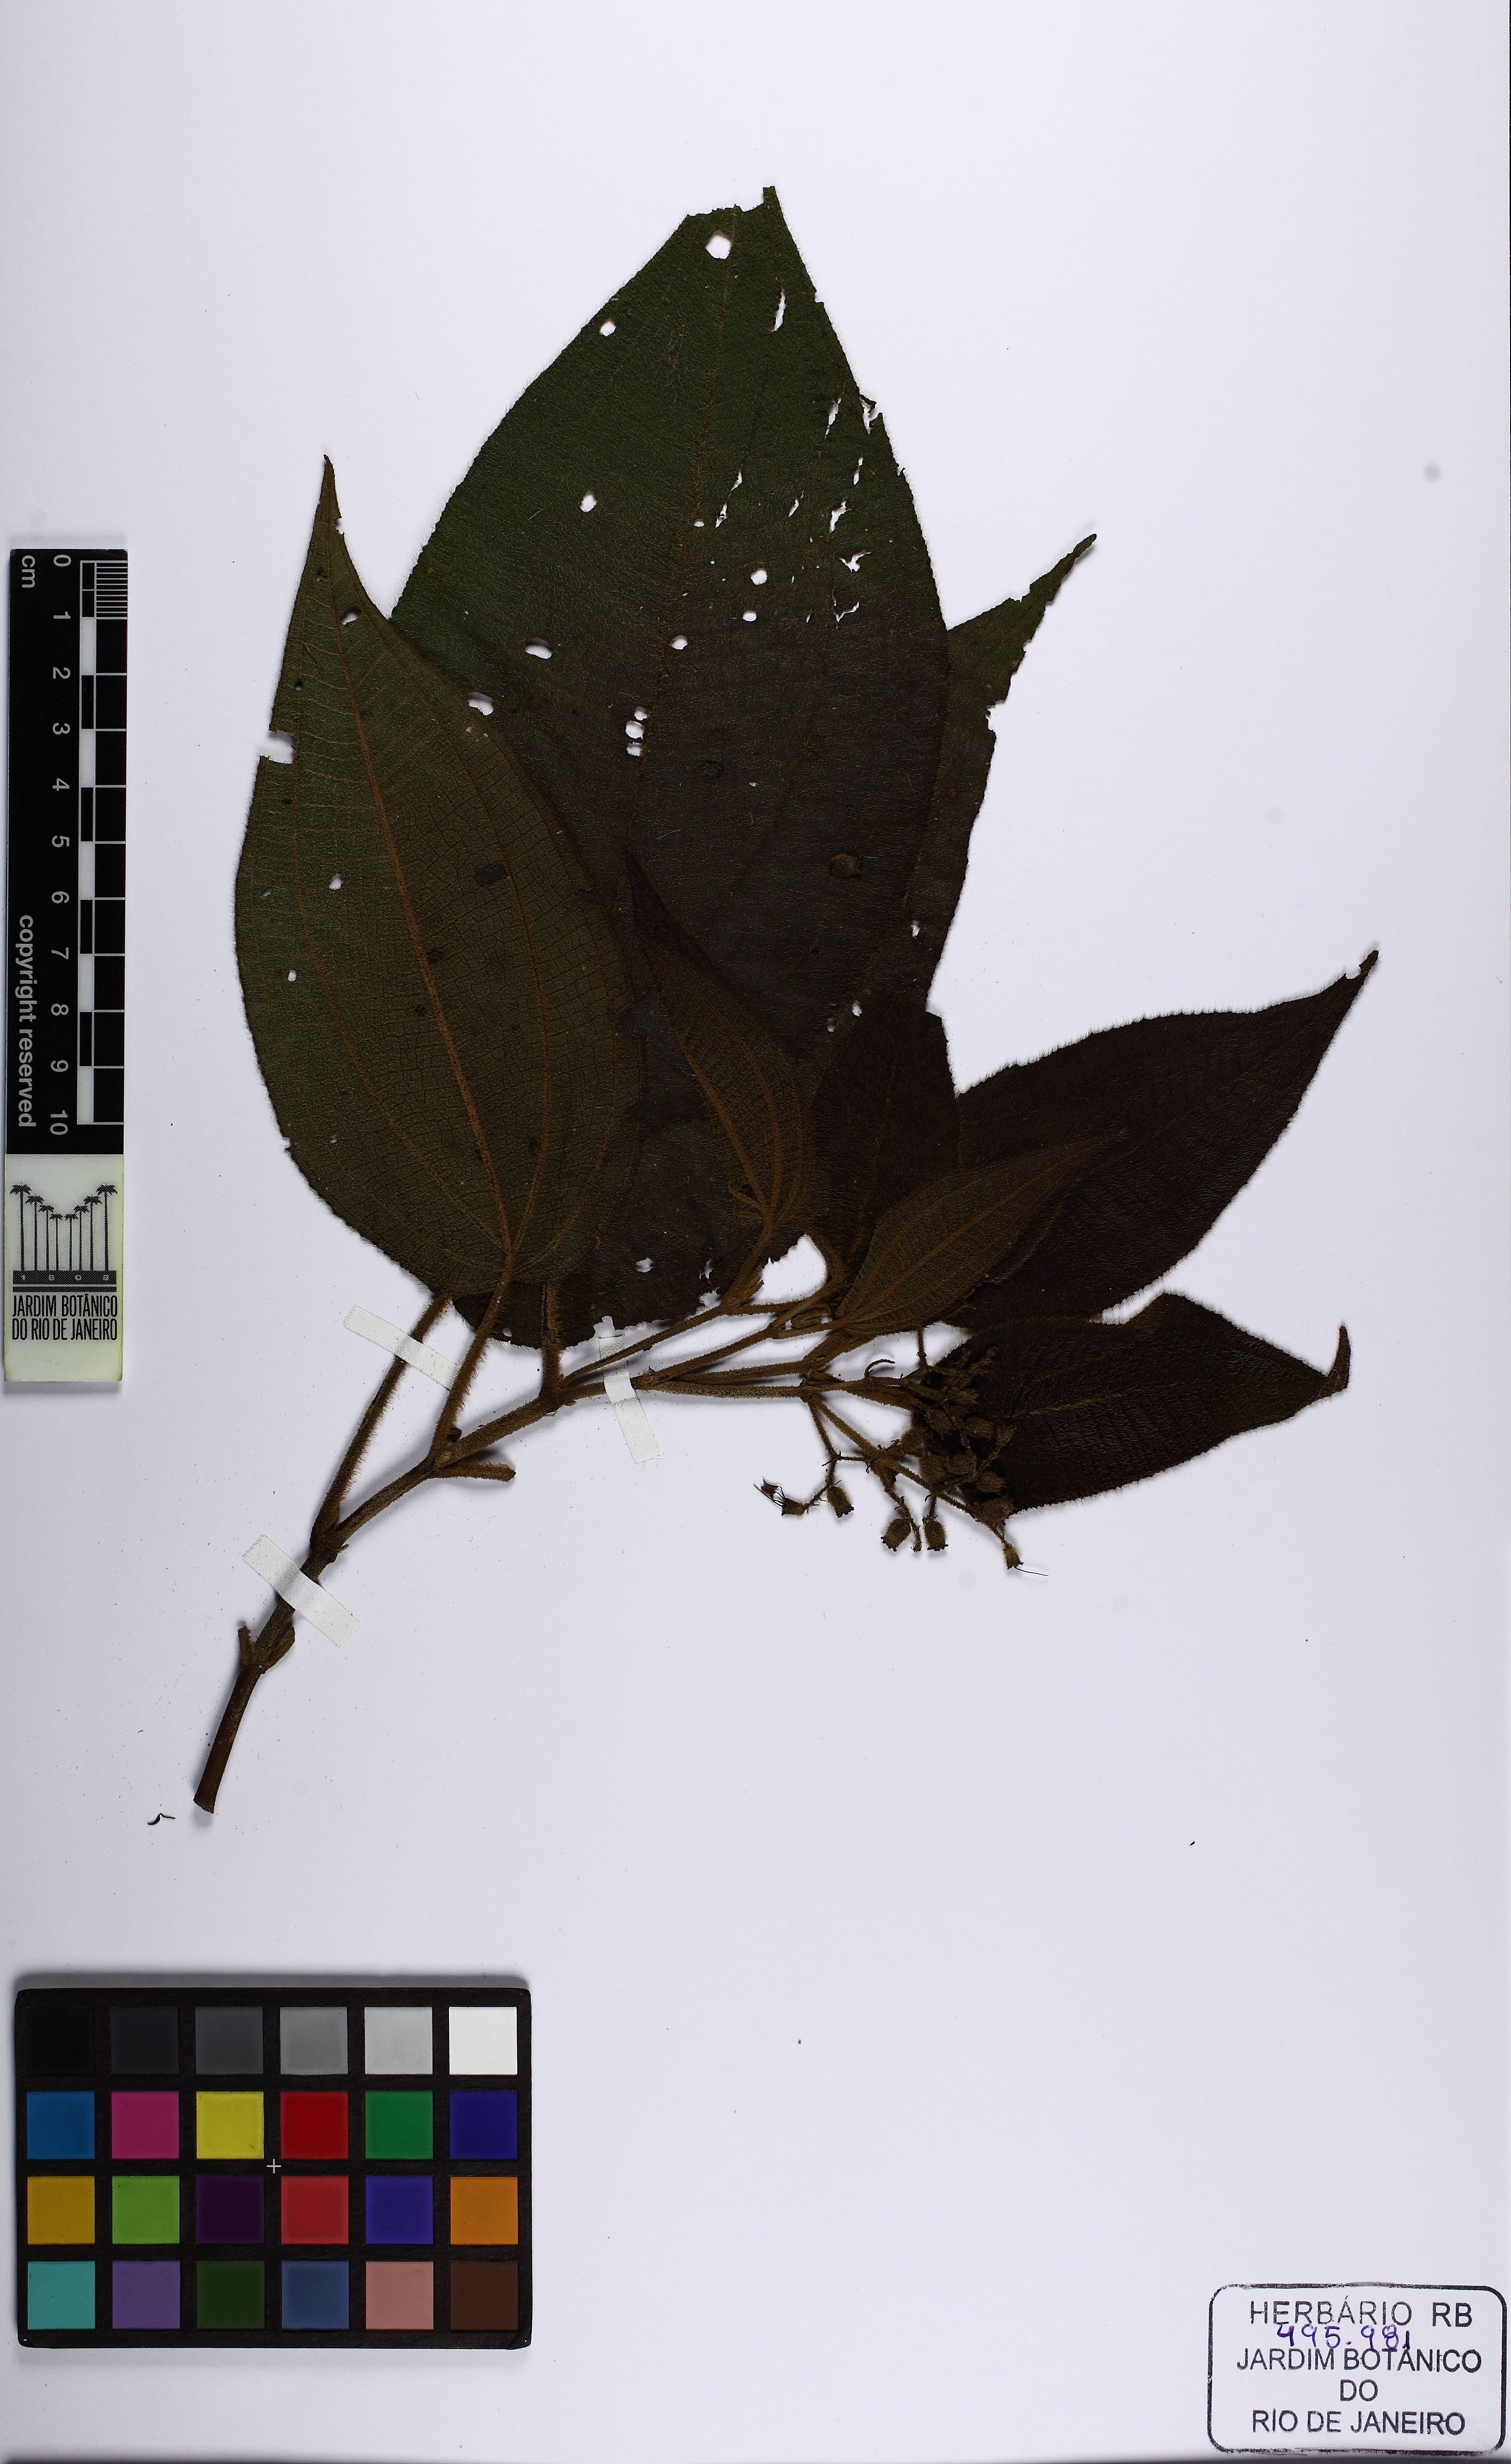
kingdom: Plantae
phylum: Tracheophyta
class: Magnoliopsida
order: Myrtales
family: Melastomataceae
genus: Miconia
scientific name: Miconia sublanata
